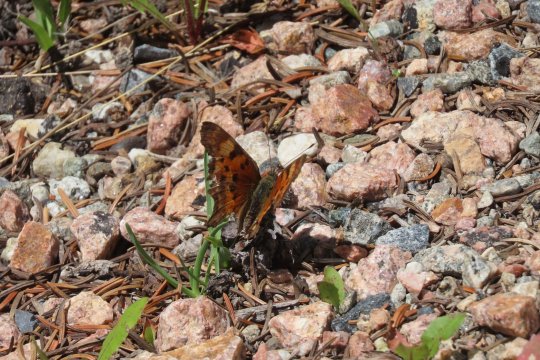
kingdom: Animalia
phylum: Arthropoda
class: Insecta
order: Lepidoptera
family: Nymphalidae
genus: Polygonia
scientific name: Polygonia gracilis
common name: Hoary Comma
